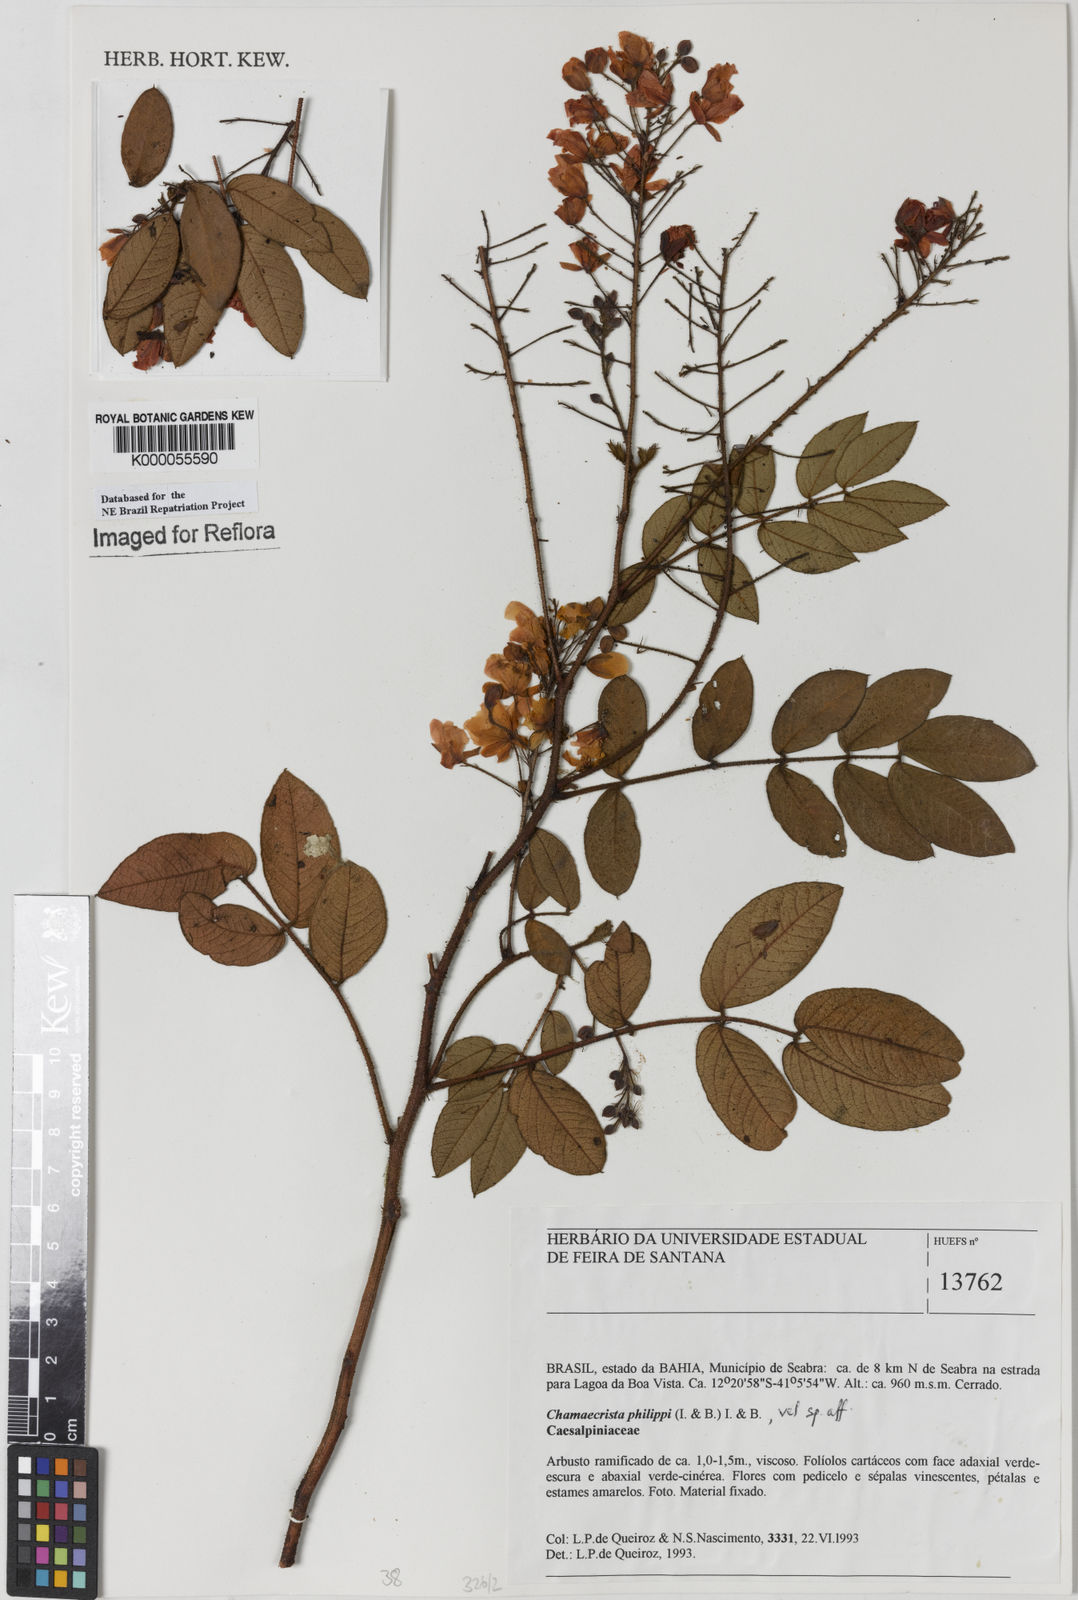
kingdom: Plantae
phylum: Tracheophyta
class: Magnoliopsida
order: Fabales
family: Fabaceae
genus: Chamaecrista
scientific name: Chamaecrista philippii
